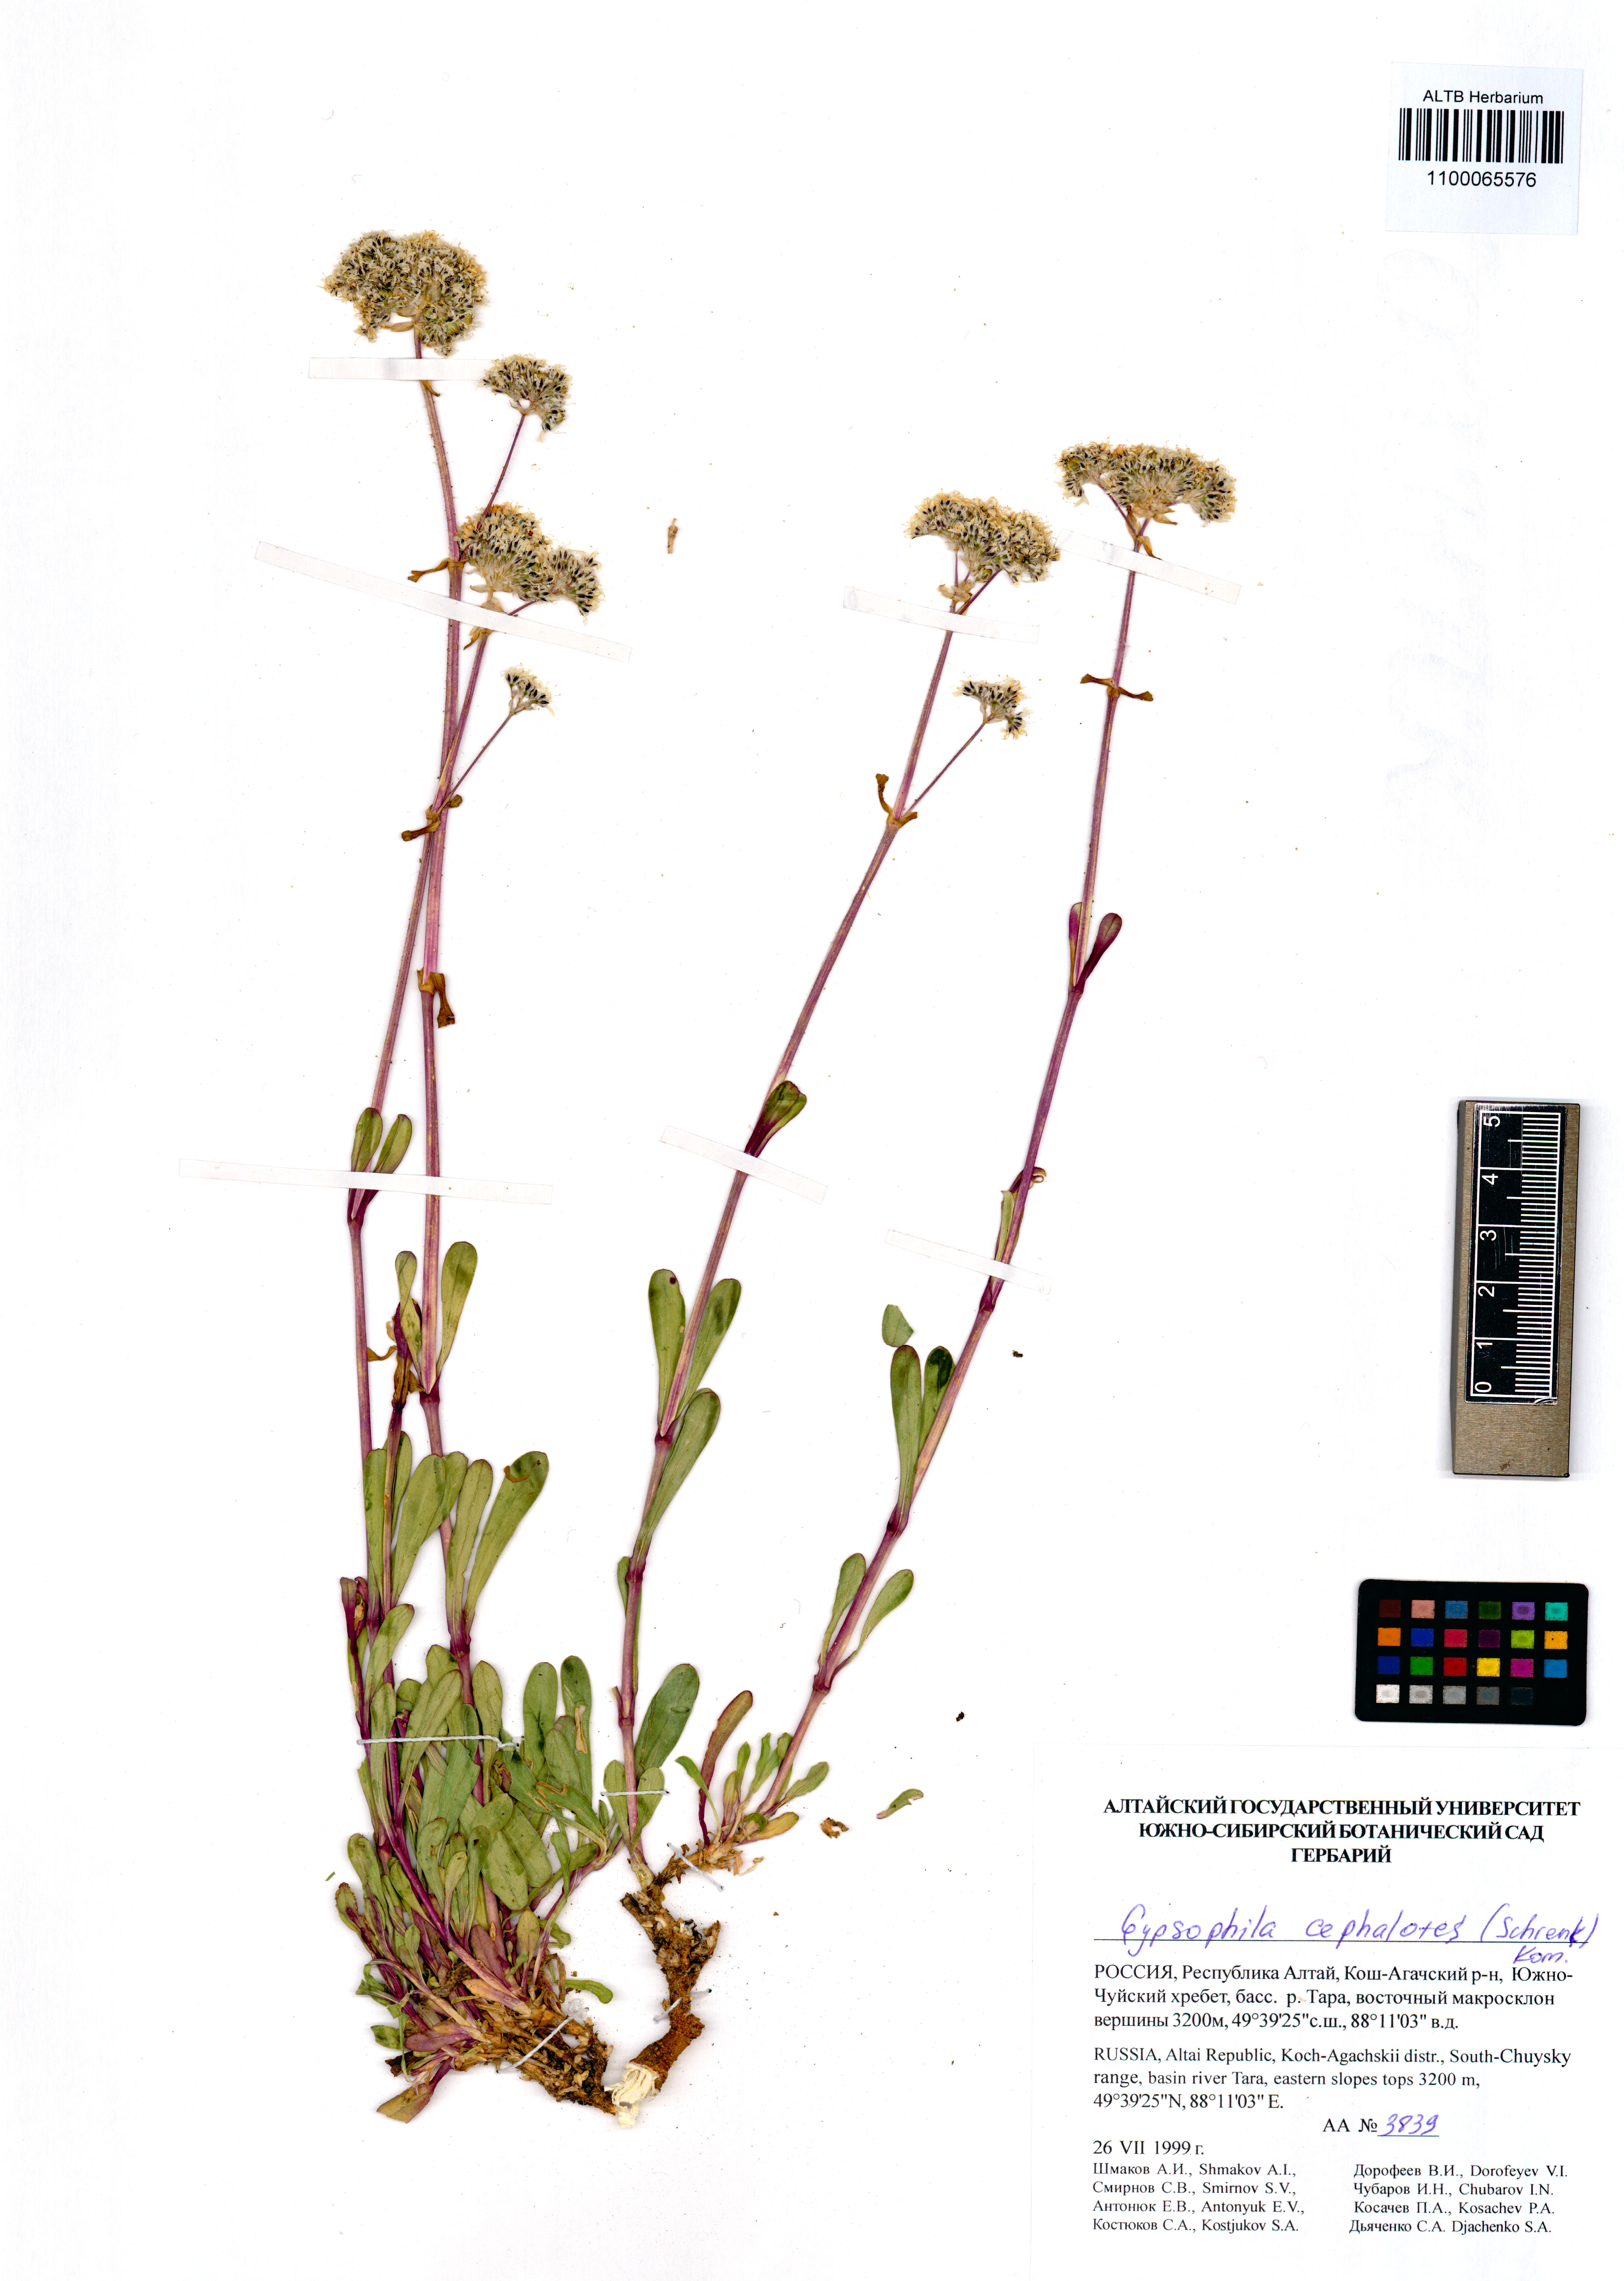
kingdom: Plantae
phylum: Tracheophyta
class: Magnoliopsida
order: Caryophyllales
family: Caryophyllaceae
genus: Gypsophila
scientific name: Gypsophila cephalotes
